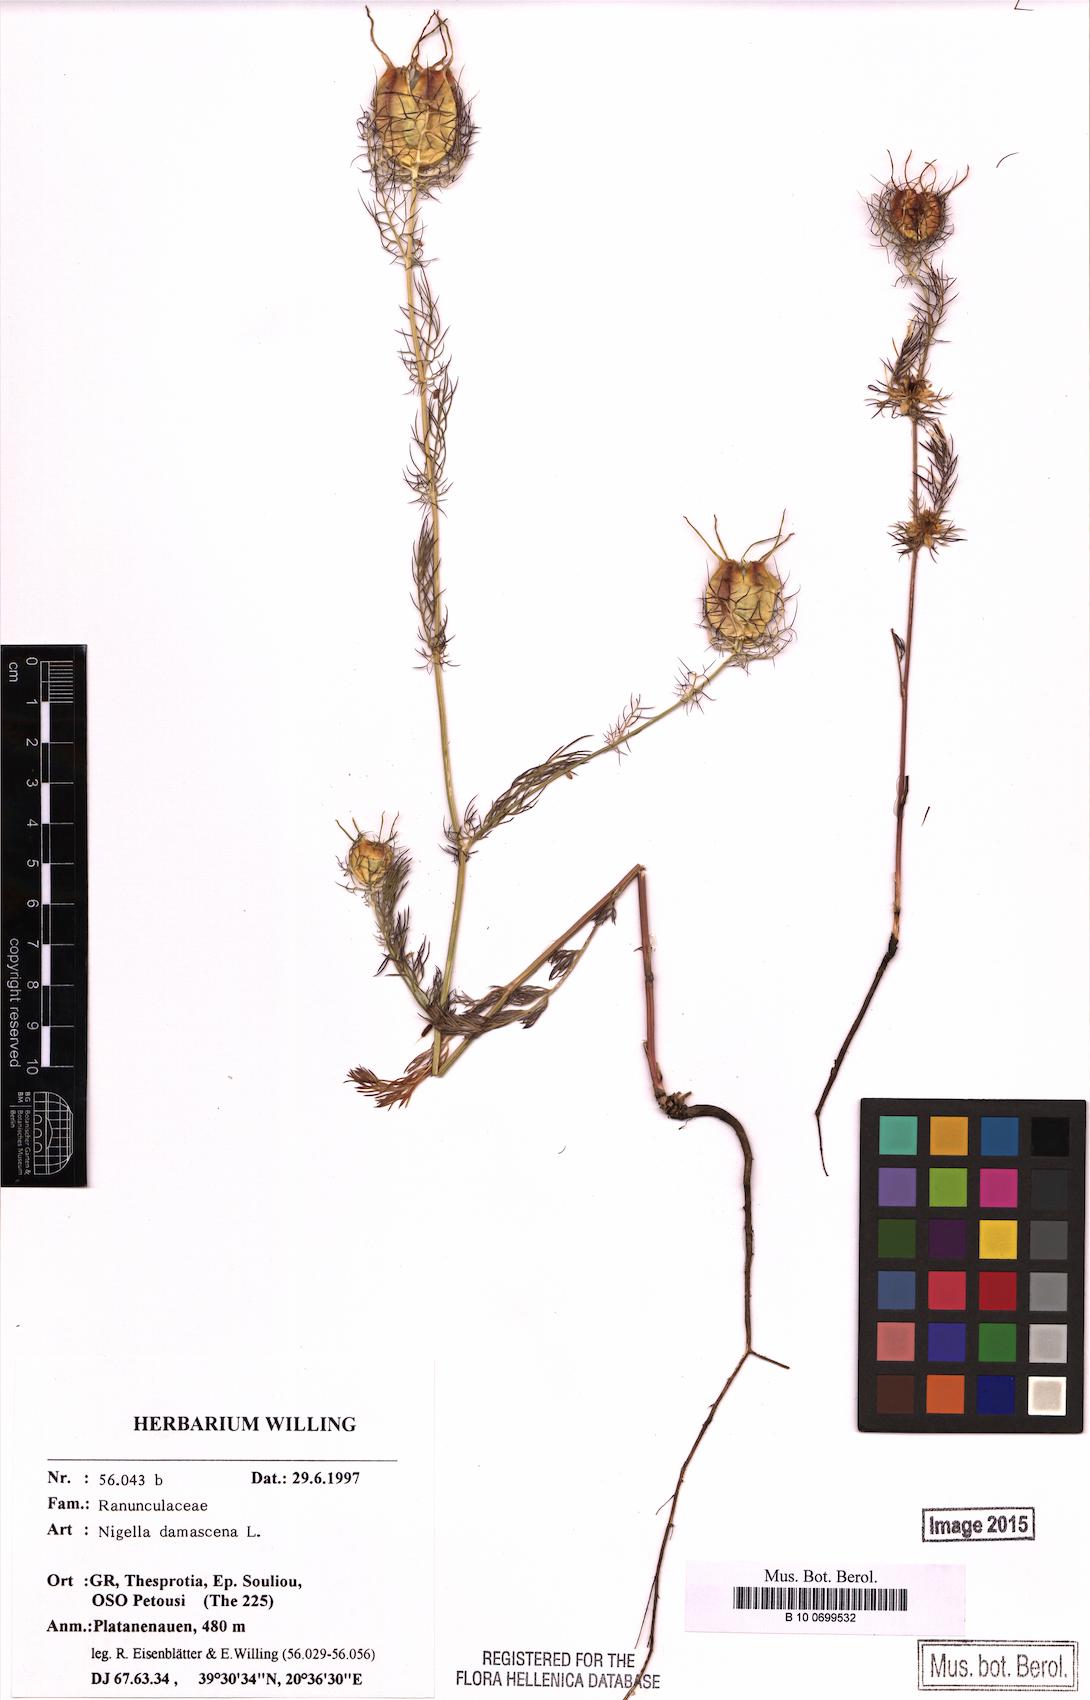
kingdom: Plantae
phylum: Tracheophyta
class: Magnoliopsida
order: Ranunculales
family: Ranunculaceae
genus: Nigella
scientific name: Nigella damascena
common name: Love-in-a-mist
